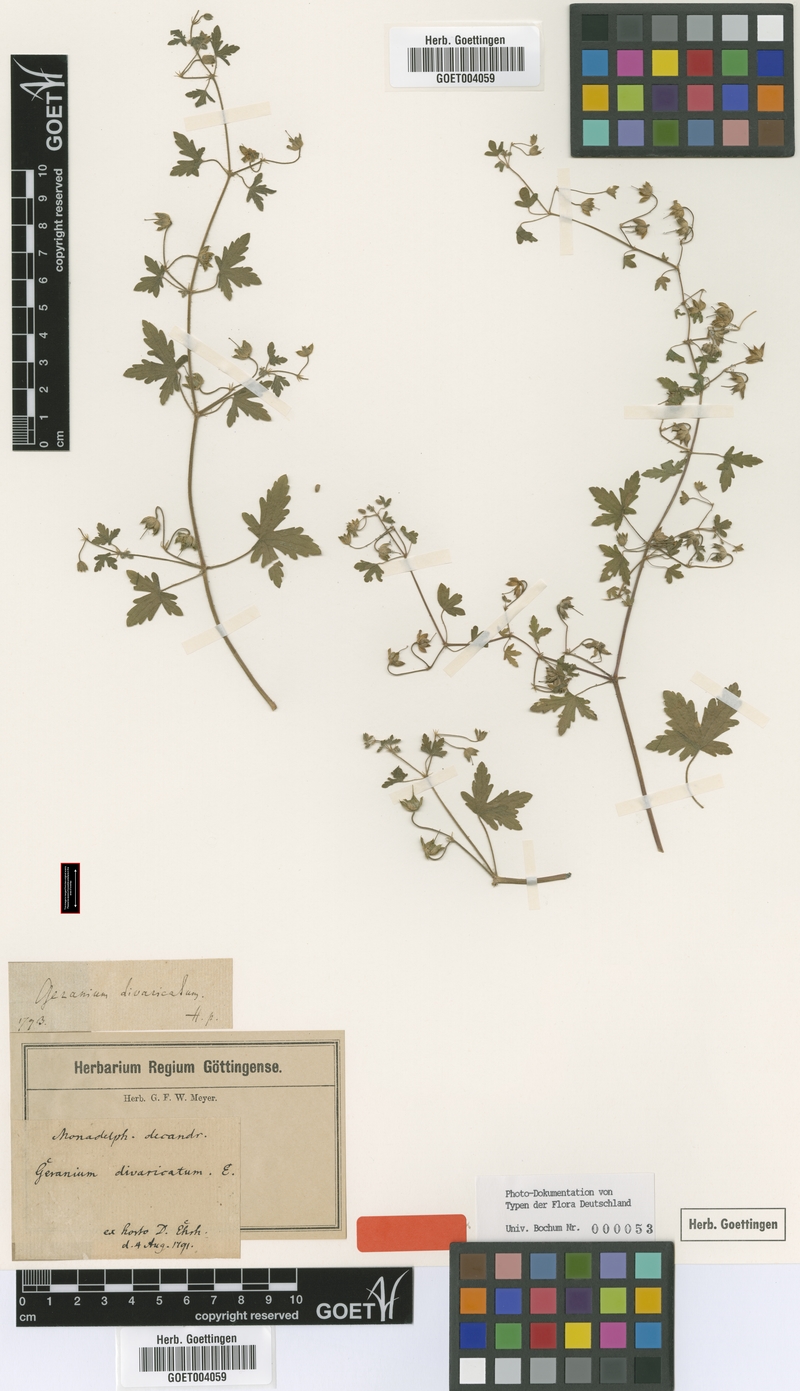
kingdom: Plantae
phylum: Tracheophyta
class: Magnoliopsida
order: Geraniales
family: Geraniaceae
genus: Geranium
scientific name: Geranium divaricatum
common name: Spreading crane's-bill
